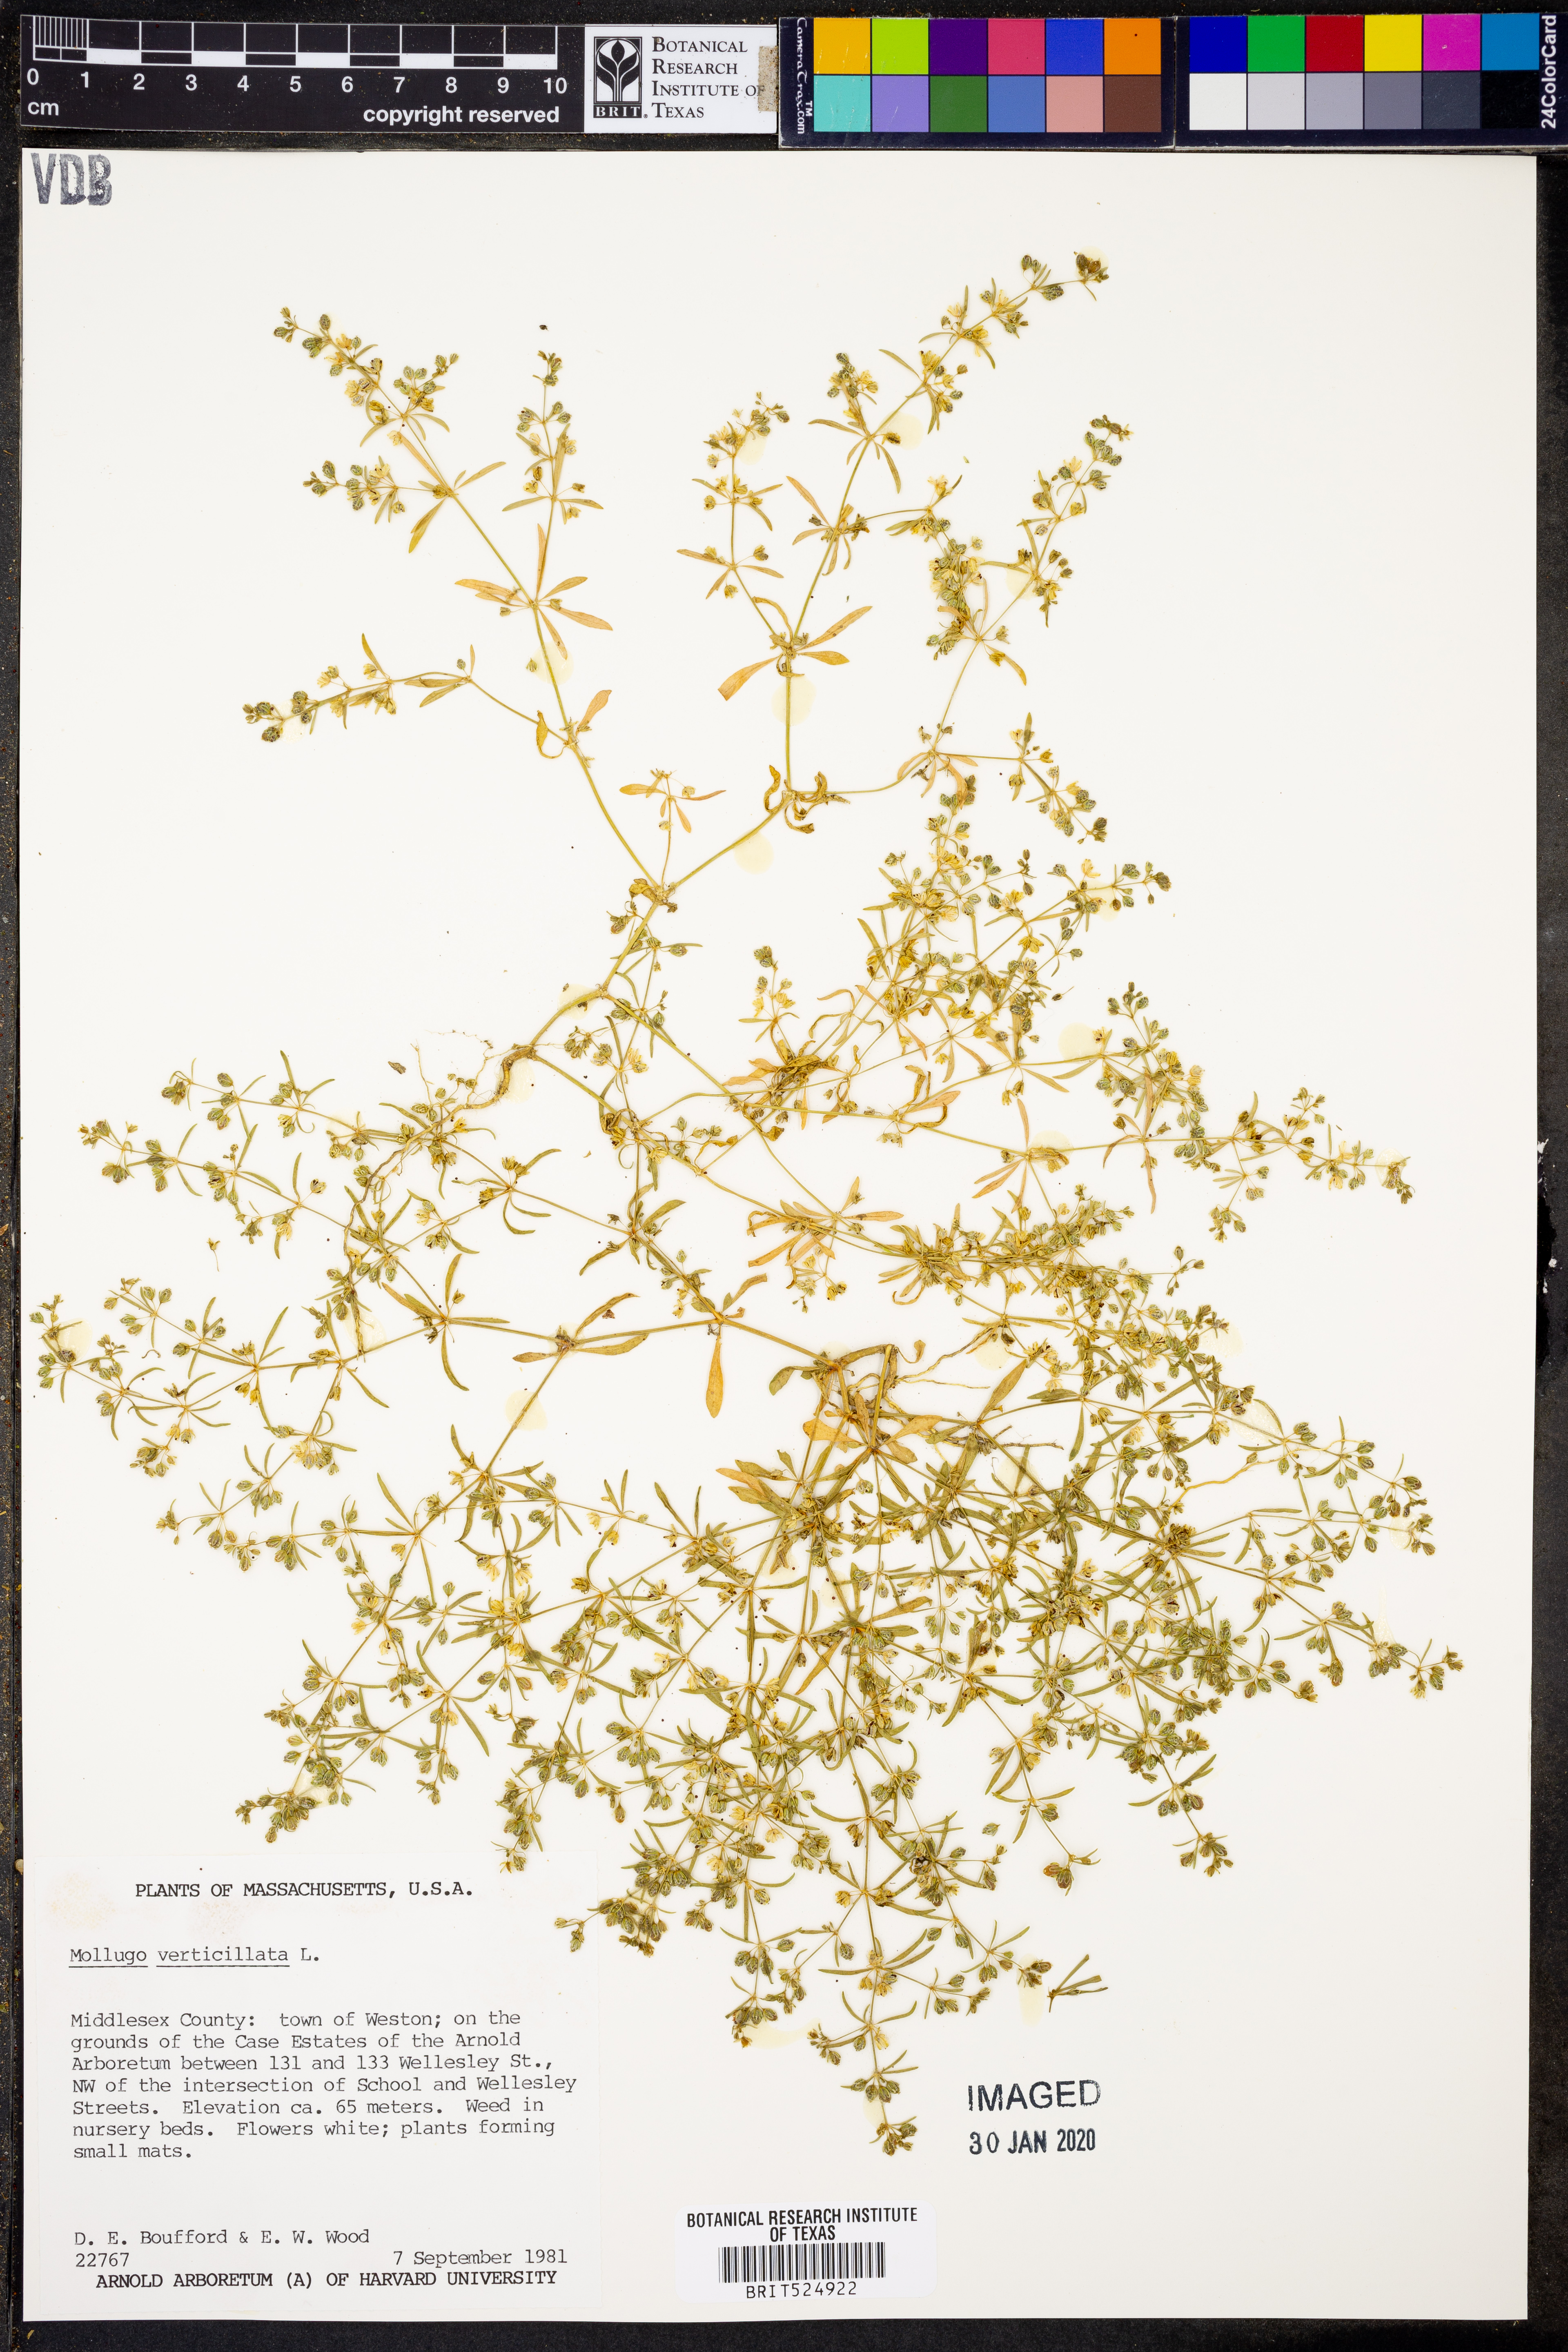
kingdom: Plantae
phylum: Tracheophyta
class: Magnoliopsida
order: Caryophyllales
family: Molluginaceae
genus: Mollugo
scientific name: Mollugo verticillata
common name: Green carpetweed
